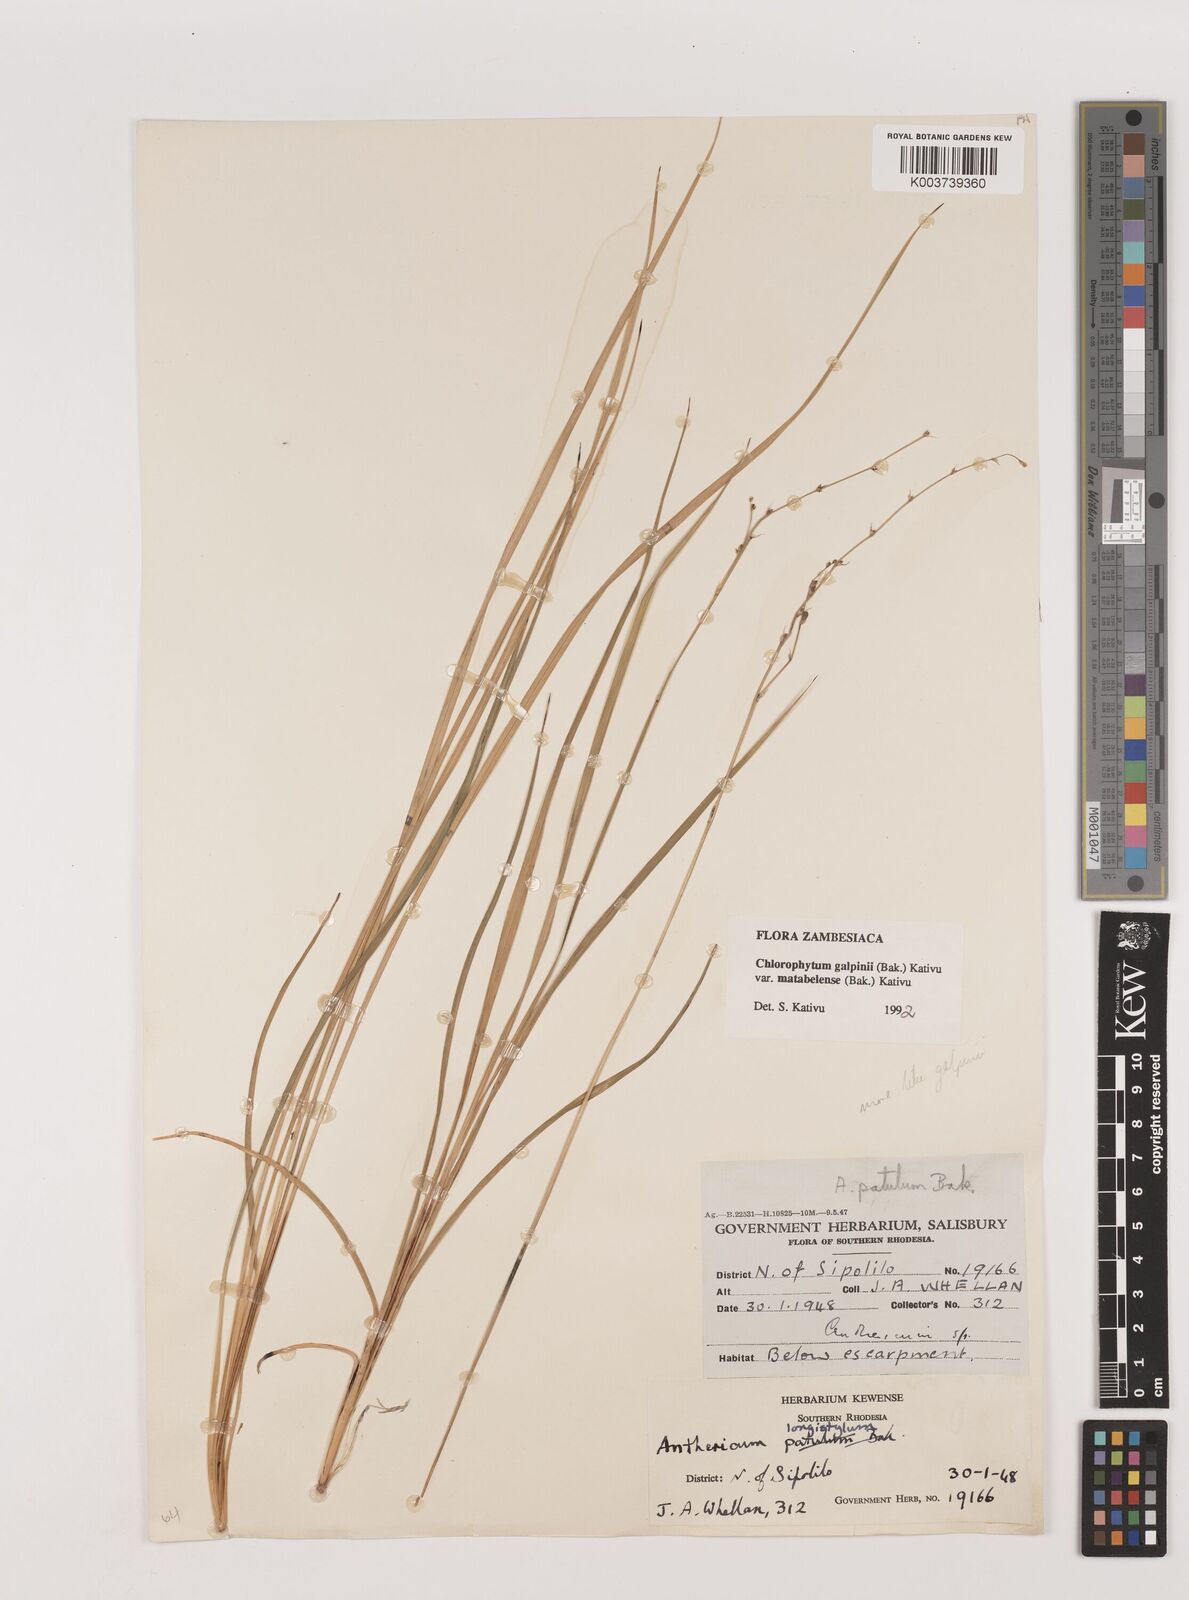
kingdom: Plantae
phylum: Tracheophyta
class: Liliopsida
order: Asparagales
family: Asparagaceae
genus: Chlorophytum
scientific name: Chlorophytum galpinii
